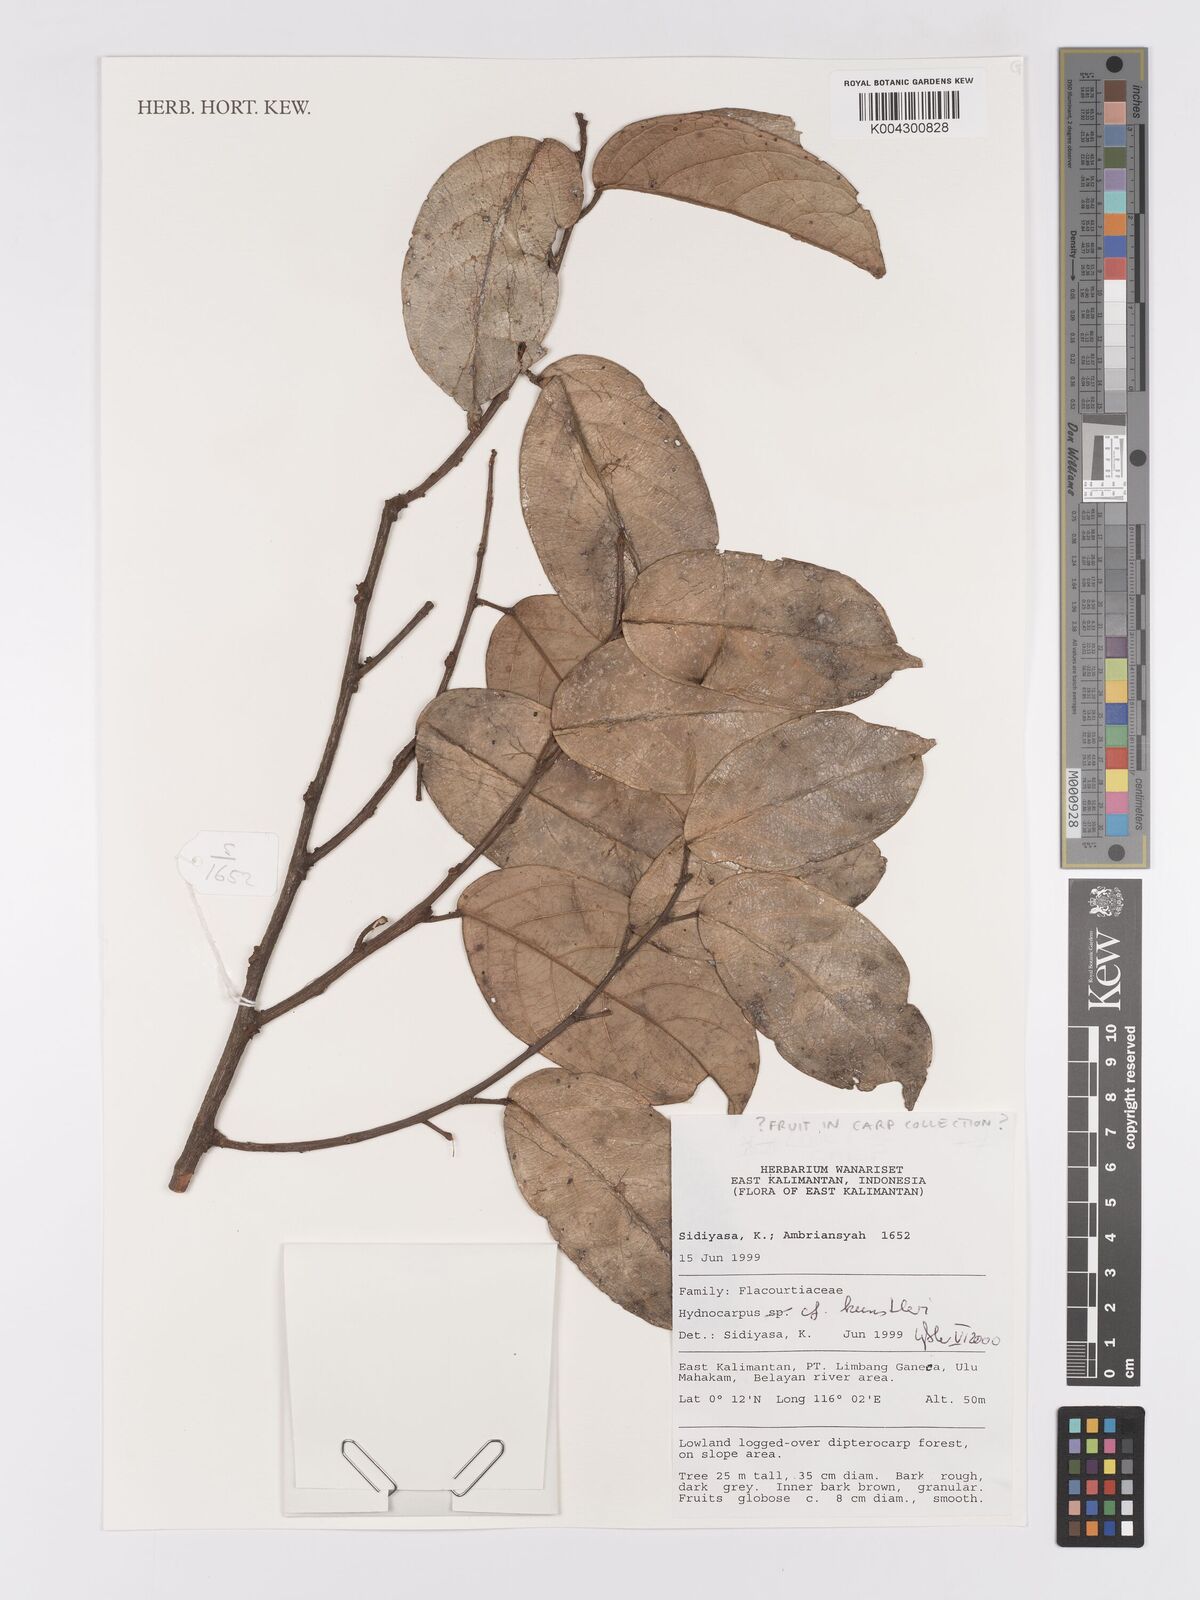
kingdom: Plantae
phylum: Tracheophyta
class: Magnoliopsida
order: Malpighiales
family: Achariaceae
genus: Hydnocarpus
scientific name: Hydnocarpus kunstleri
